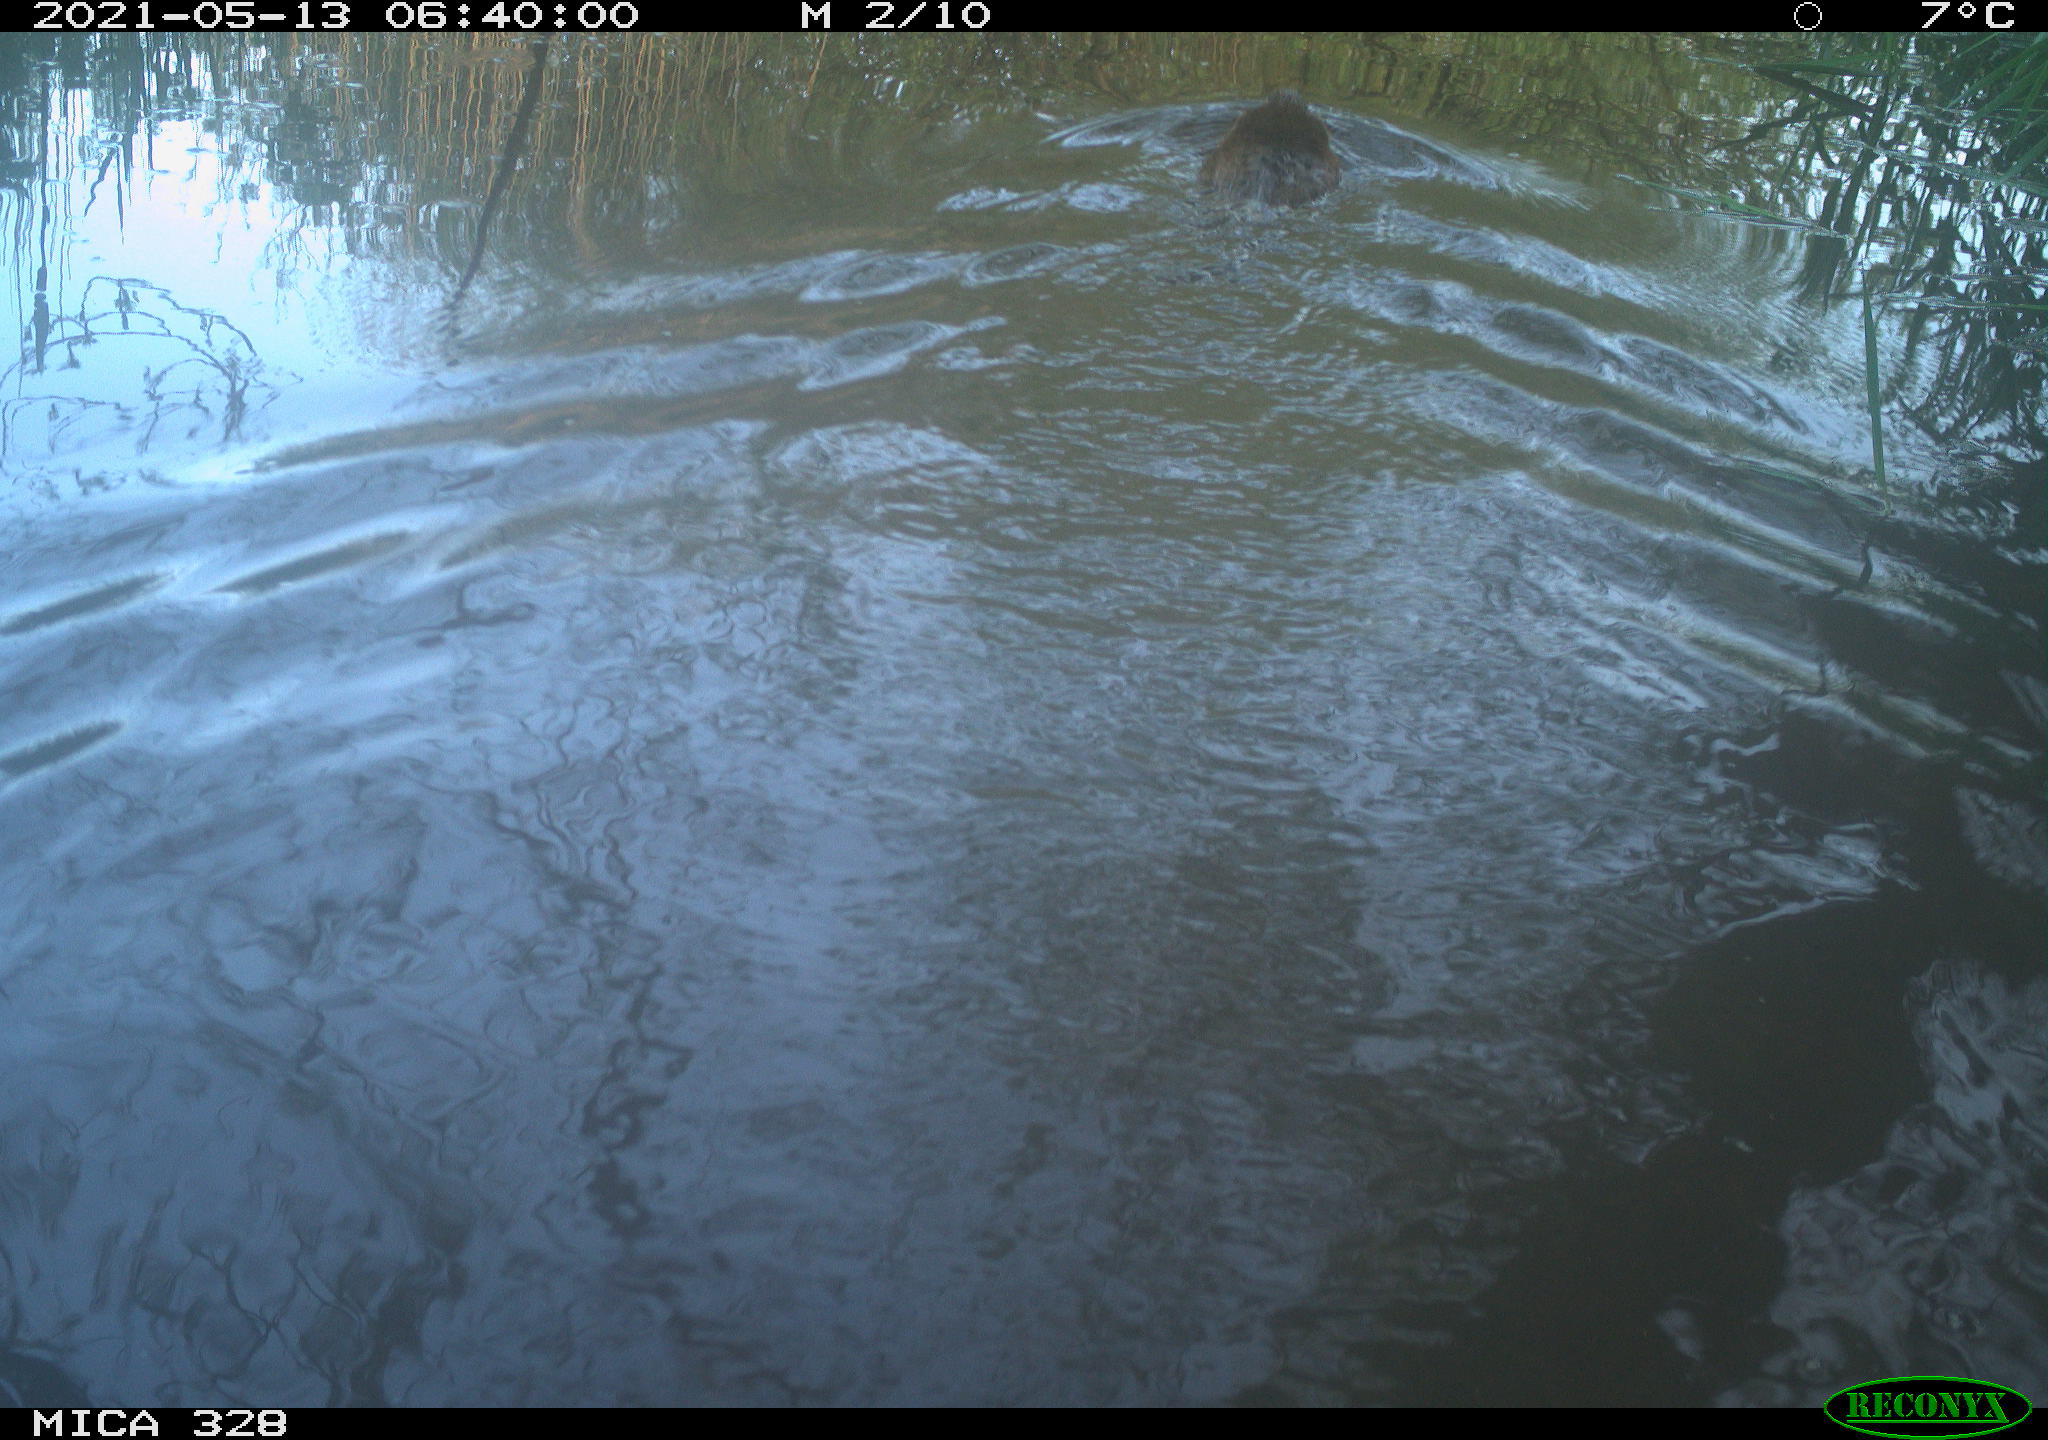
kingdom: Animalia
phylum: Chordata
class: Mammalia
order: Rodentia
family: Cricetidae
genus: Ondatra
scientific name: Ondatra zibethicus
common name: Muskrat
